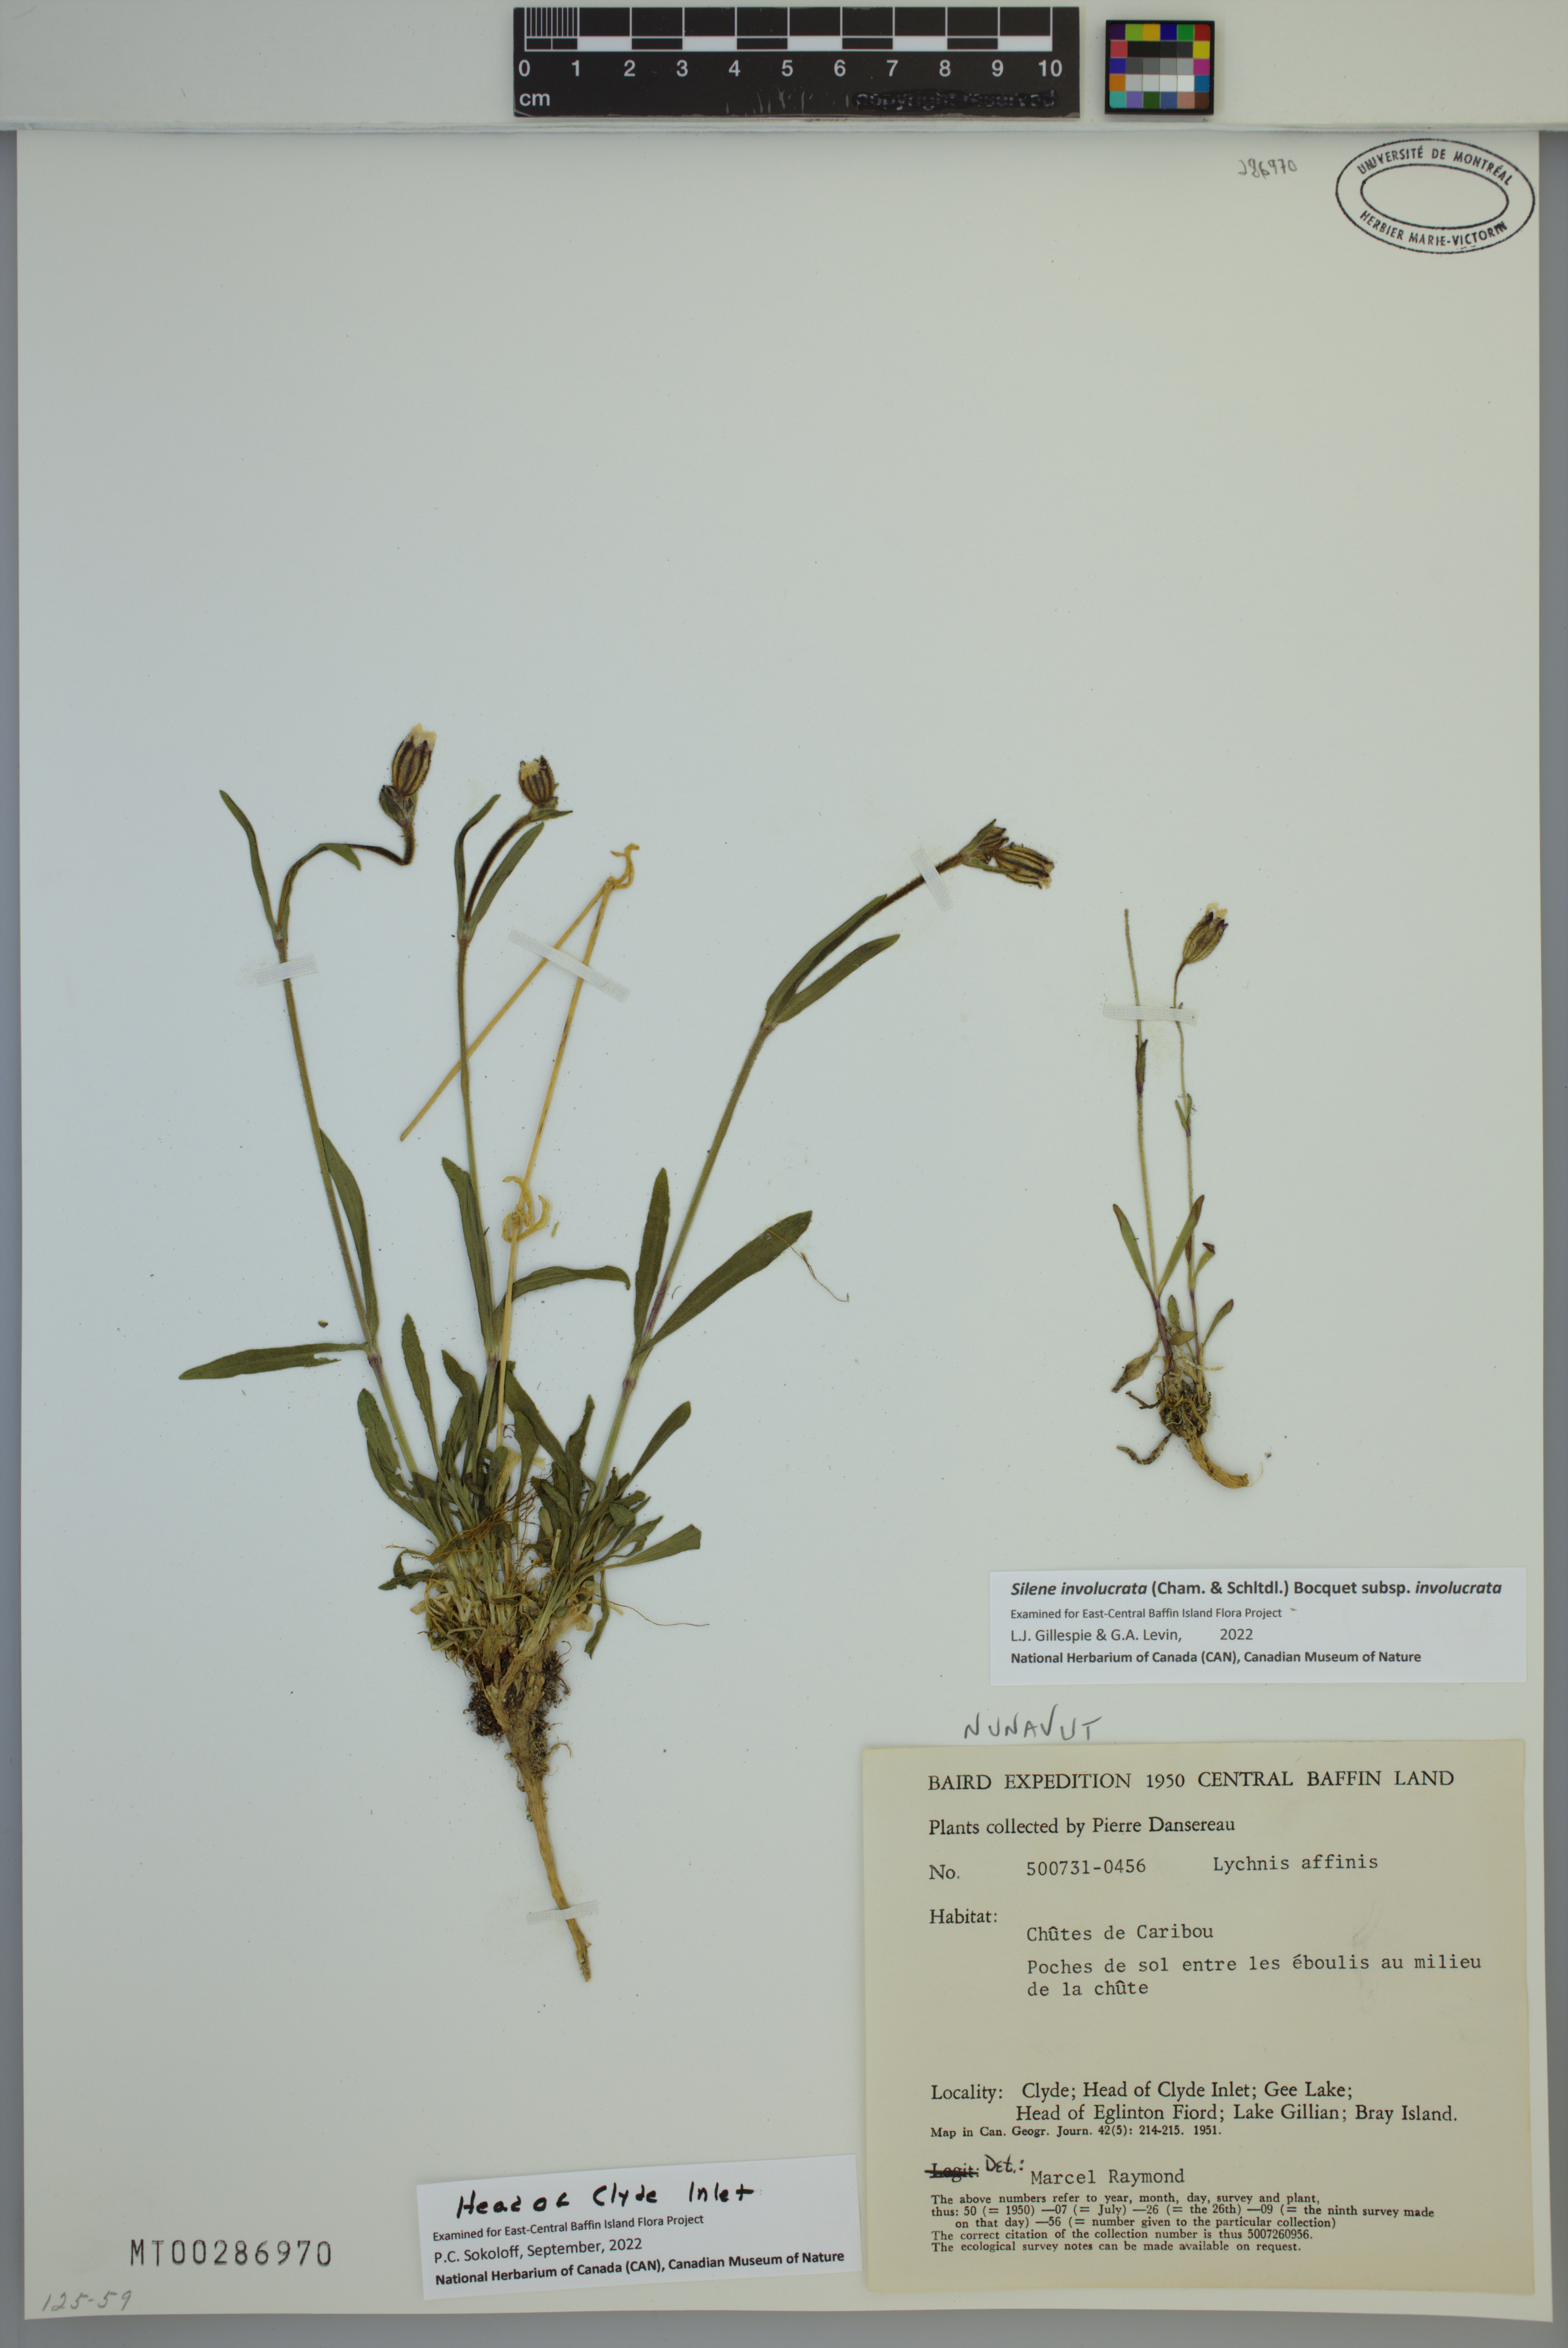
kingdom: Plantae
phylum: Tracheophyta
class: Magnoliopsida
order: Caryophyllales
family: Caryophyllaceae
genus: Silene
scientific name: Silene involucrata
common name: Greater arctic campion
